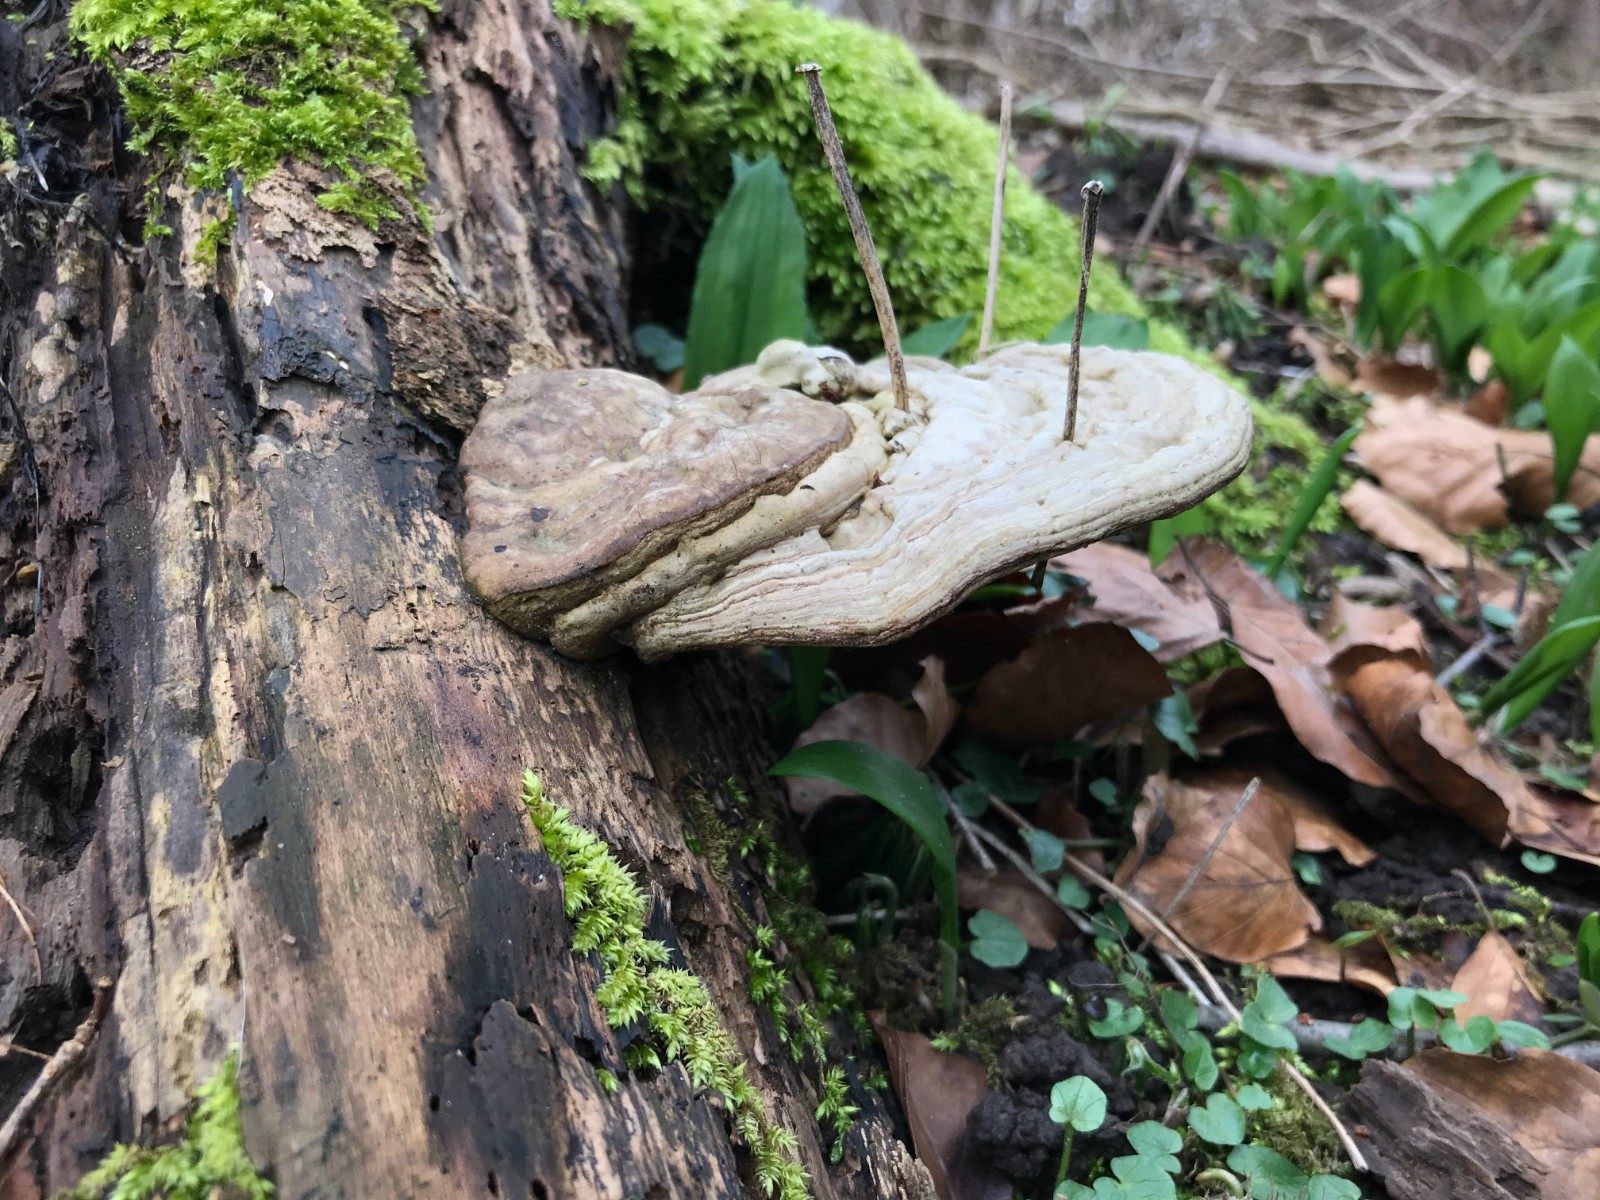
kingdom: Fungi
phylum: Basidiomycota
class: Agaricomycetes
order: Polyporales
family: Polyporaceae
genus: Ganoderma
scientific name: Ganoderma applanatum
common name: flad lakporesvamp
